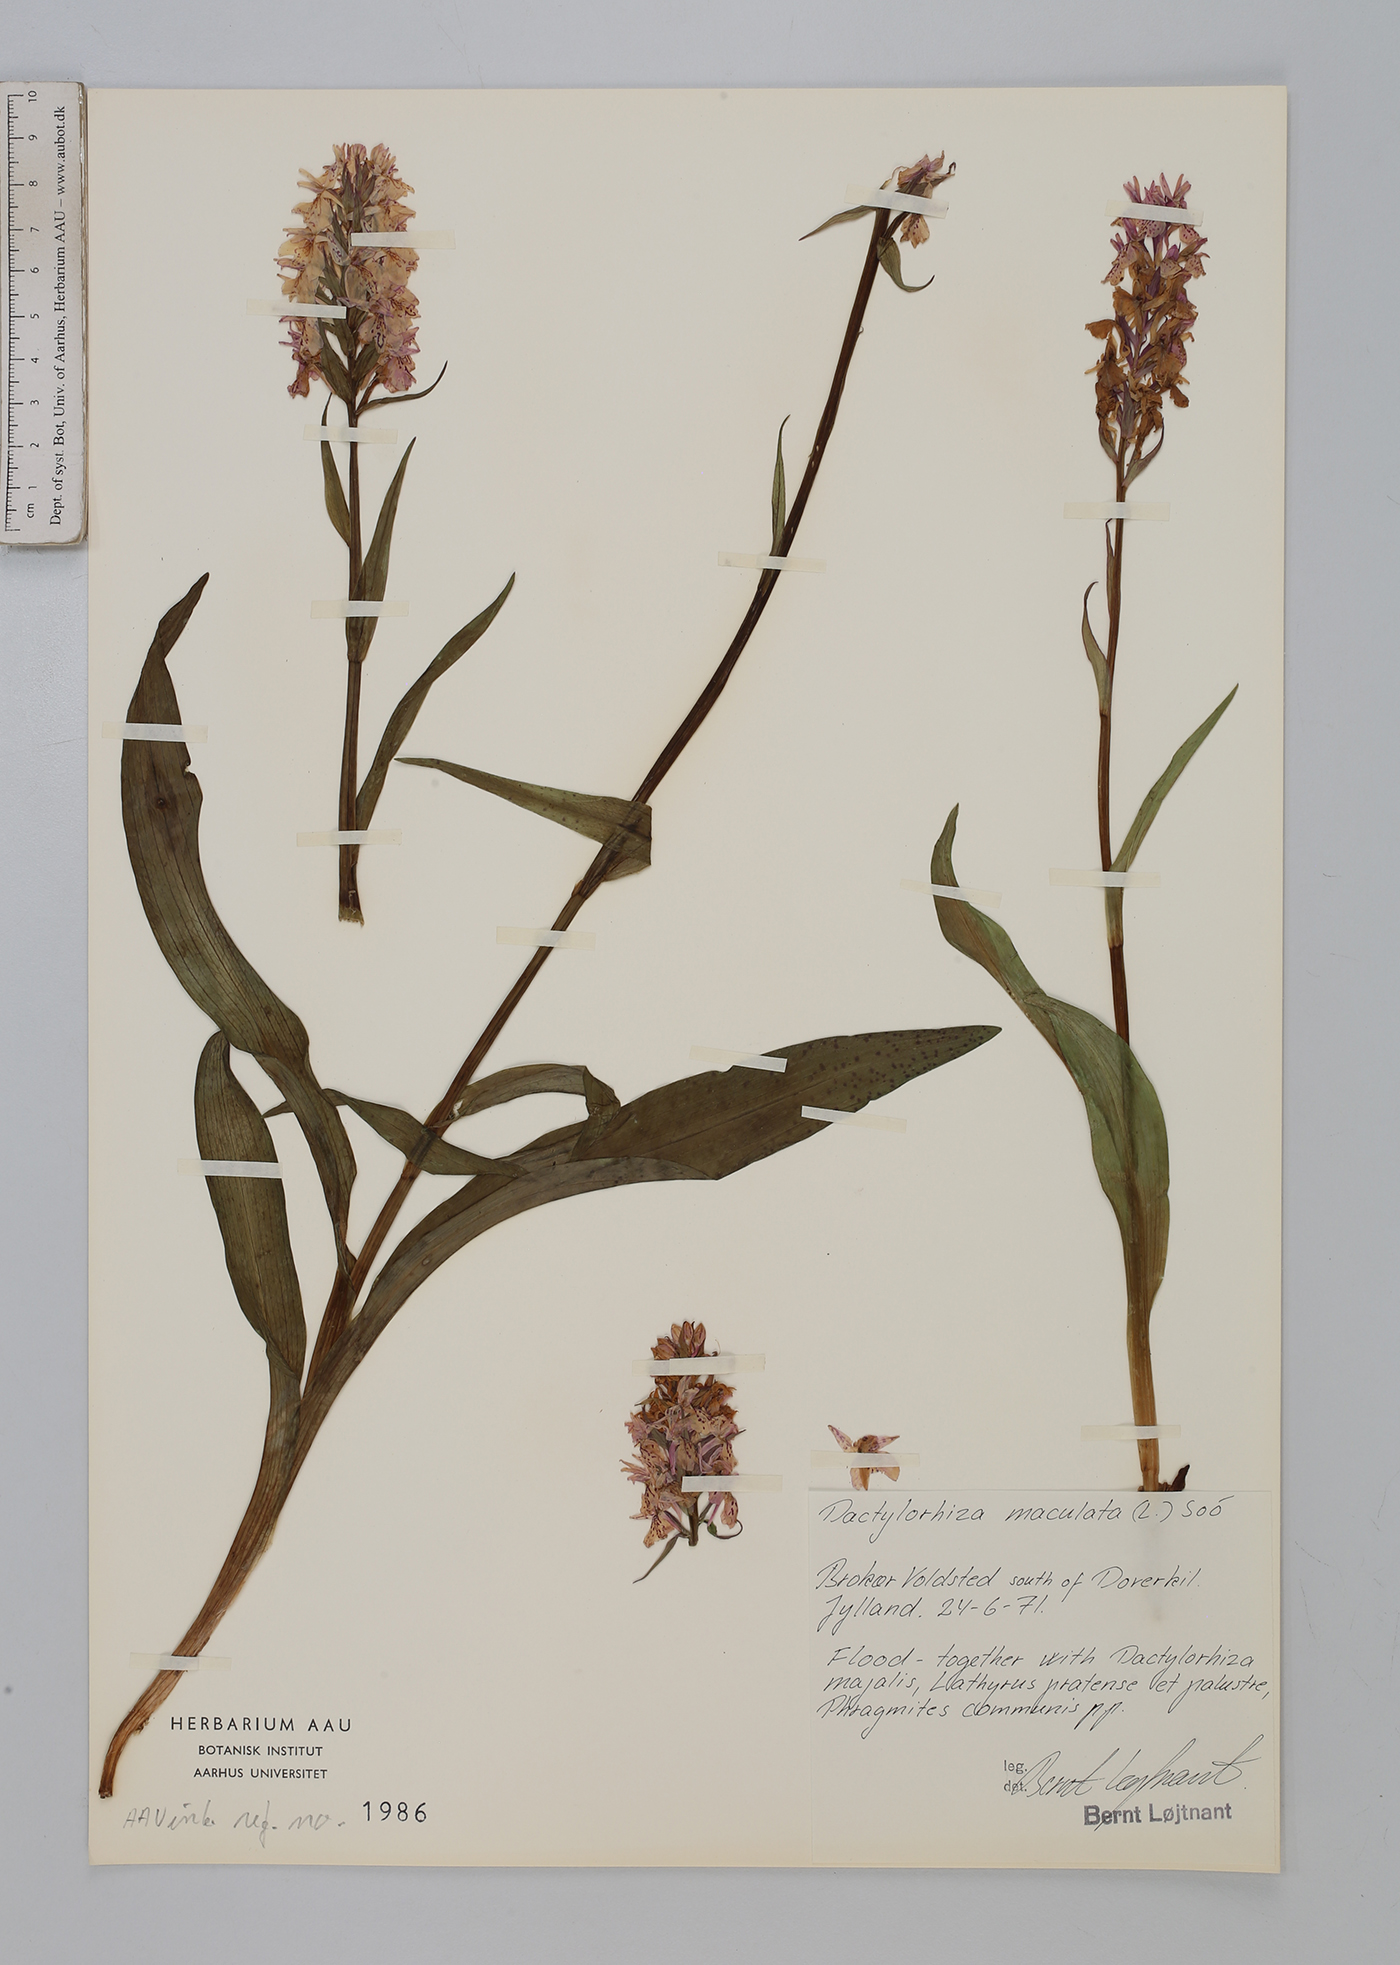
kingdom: Plantae
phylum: Tracheophyta
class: Liliopsida
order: Asparagales
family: Orchidaceae
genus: Dactylorhiza
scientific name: Dactylorhiza maculata
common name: Heath spotted-orchid
